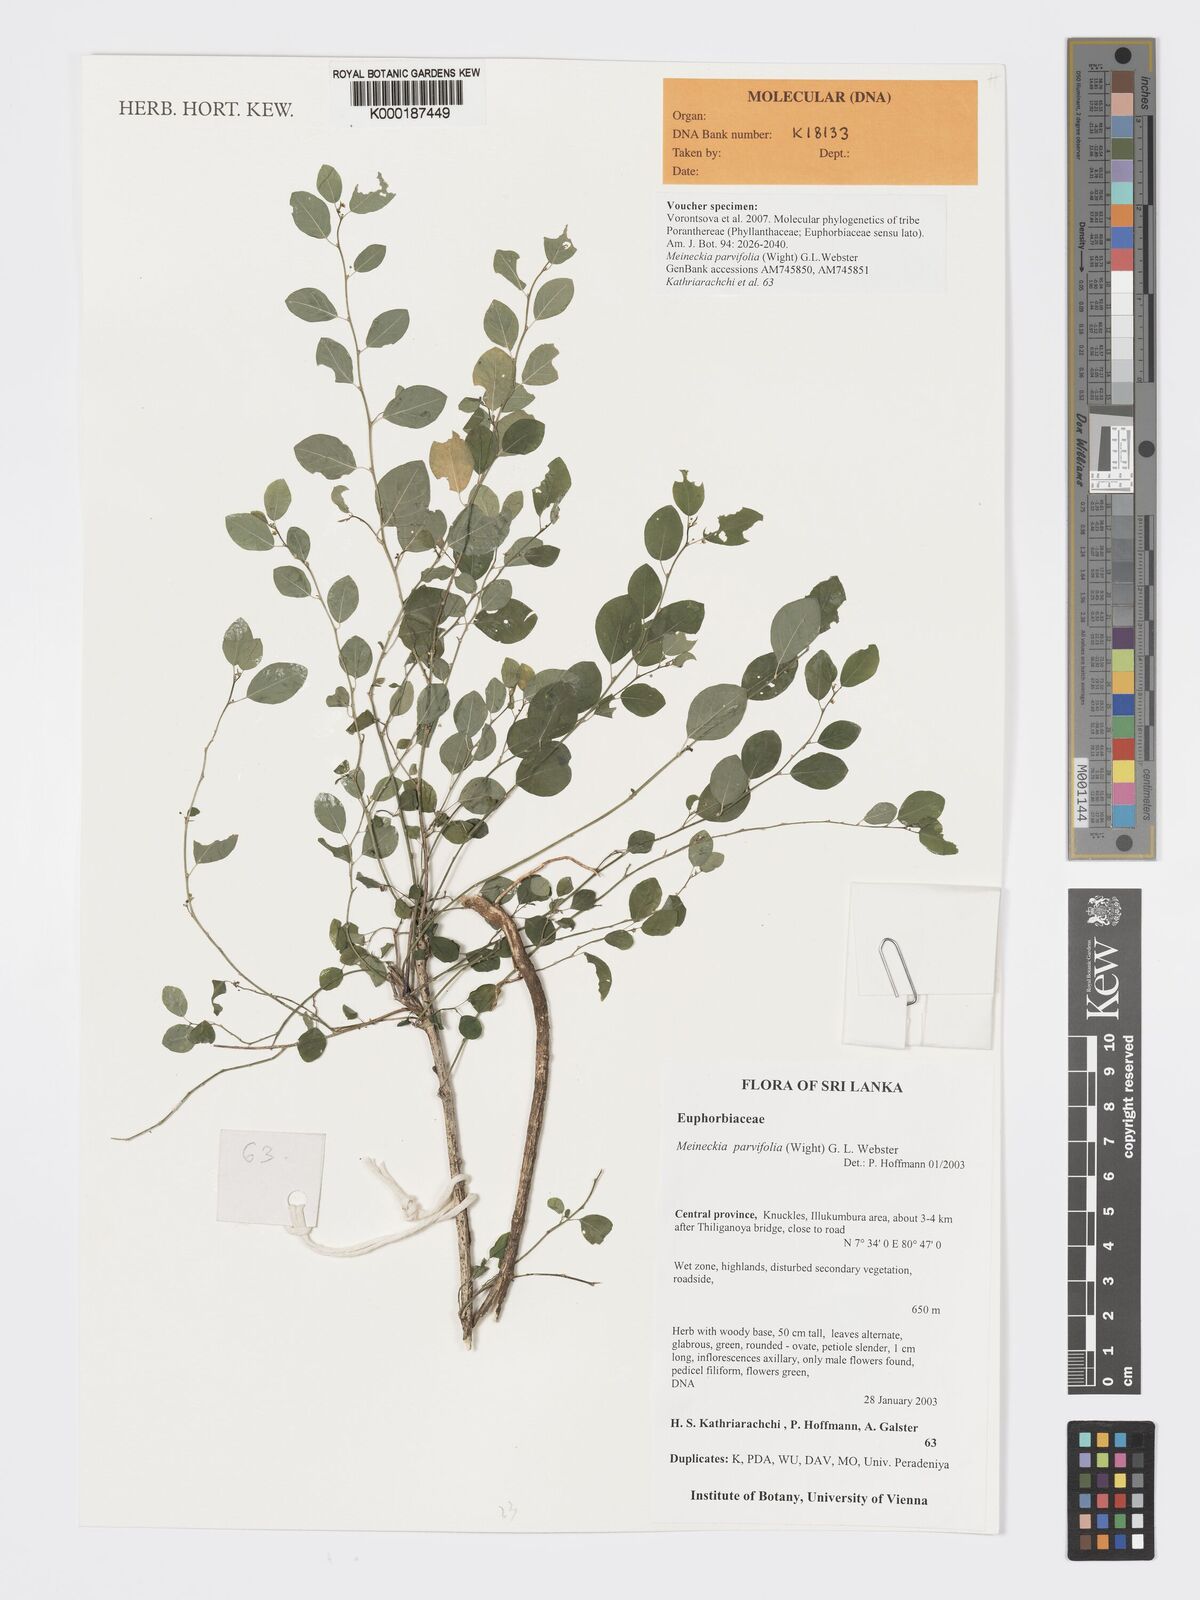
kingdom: Plantae
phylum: Tracheophyta
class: Magnoliopsida
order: Malpighiales
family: Phyllanthaceae
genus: Meineckia
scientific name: Meineckia parvifolia
